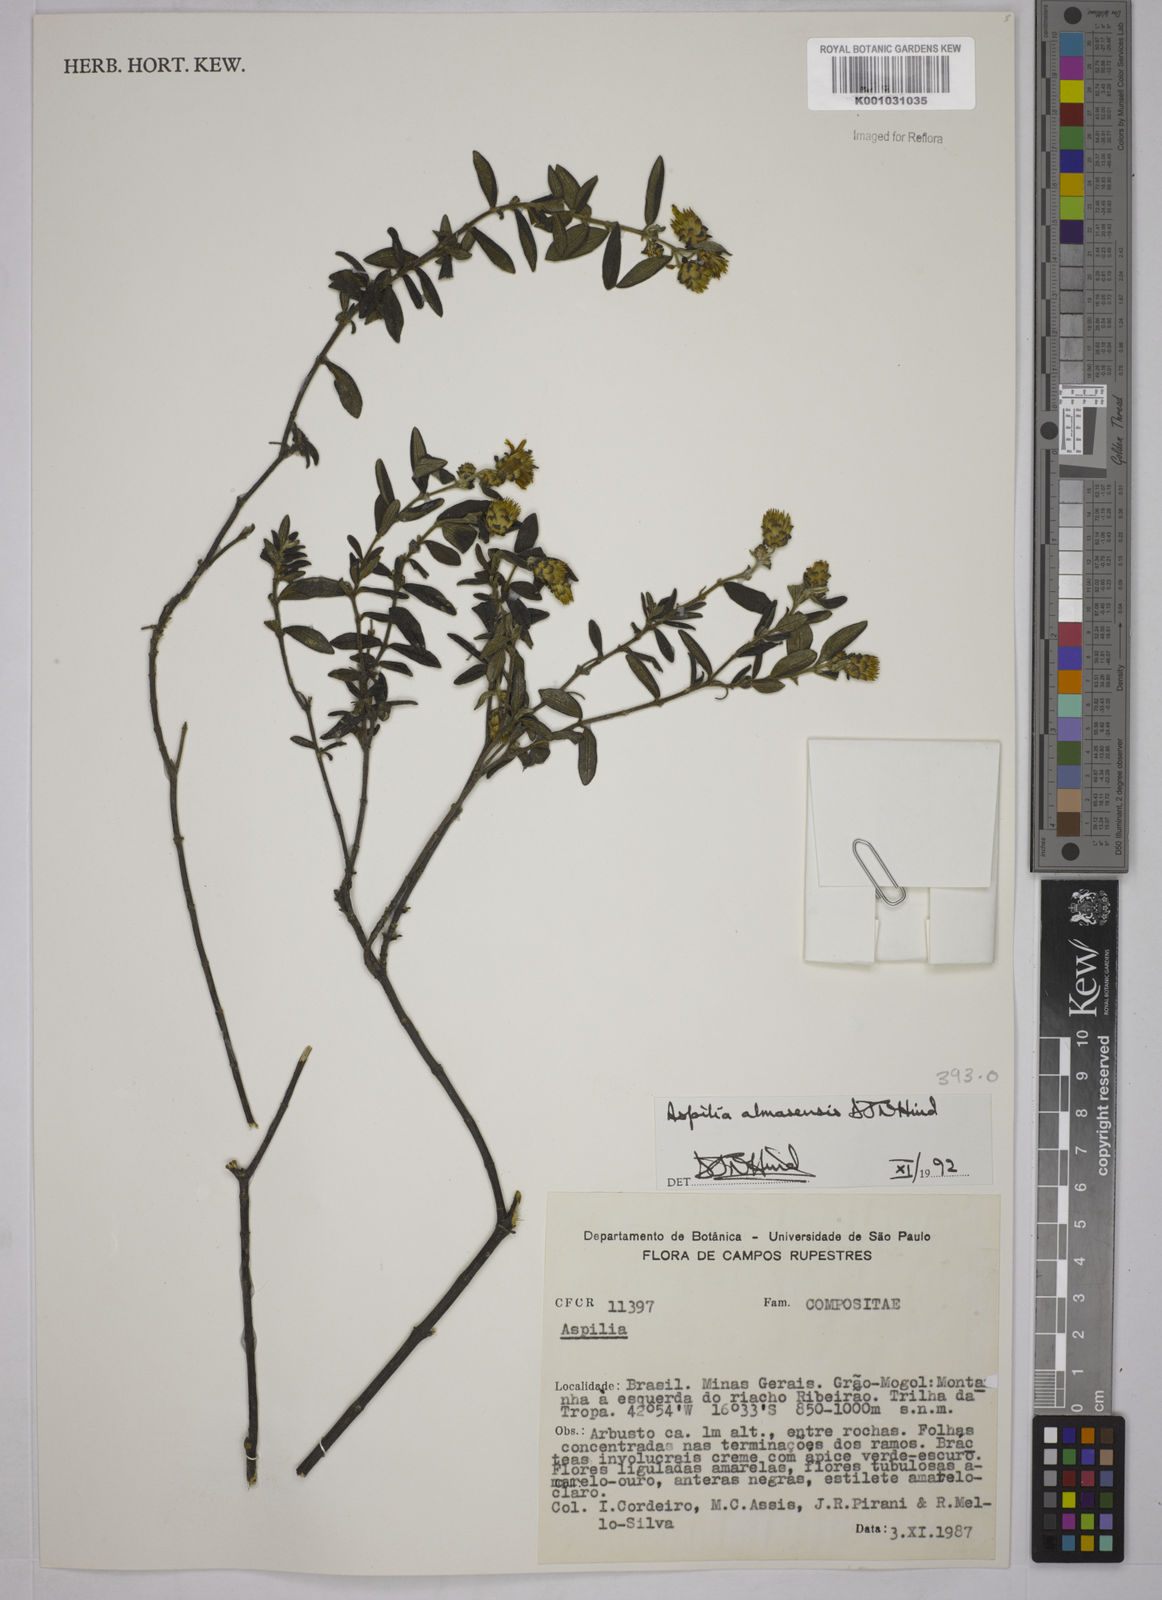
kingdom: Plantae
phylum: Tracheophyta
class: Magnoliopsida
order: Asterales
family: Asteraceae
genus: Aspilia
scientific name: Aspilia almasensis
